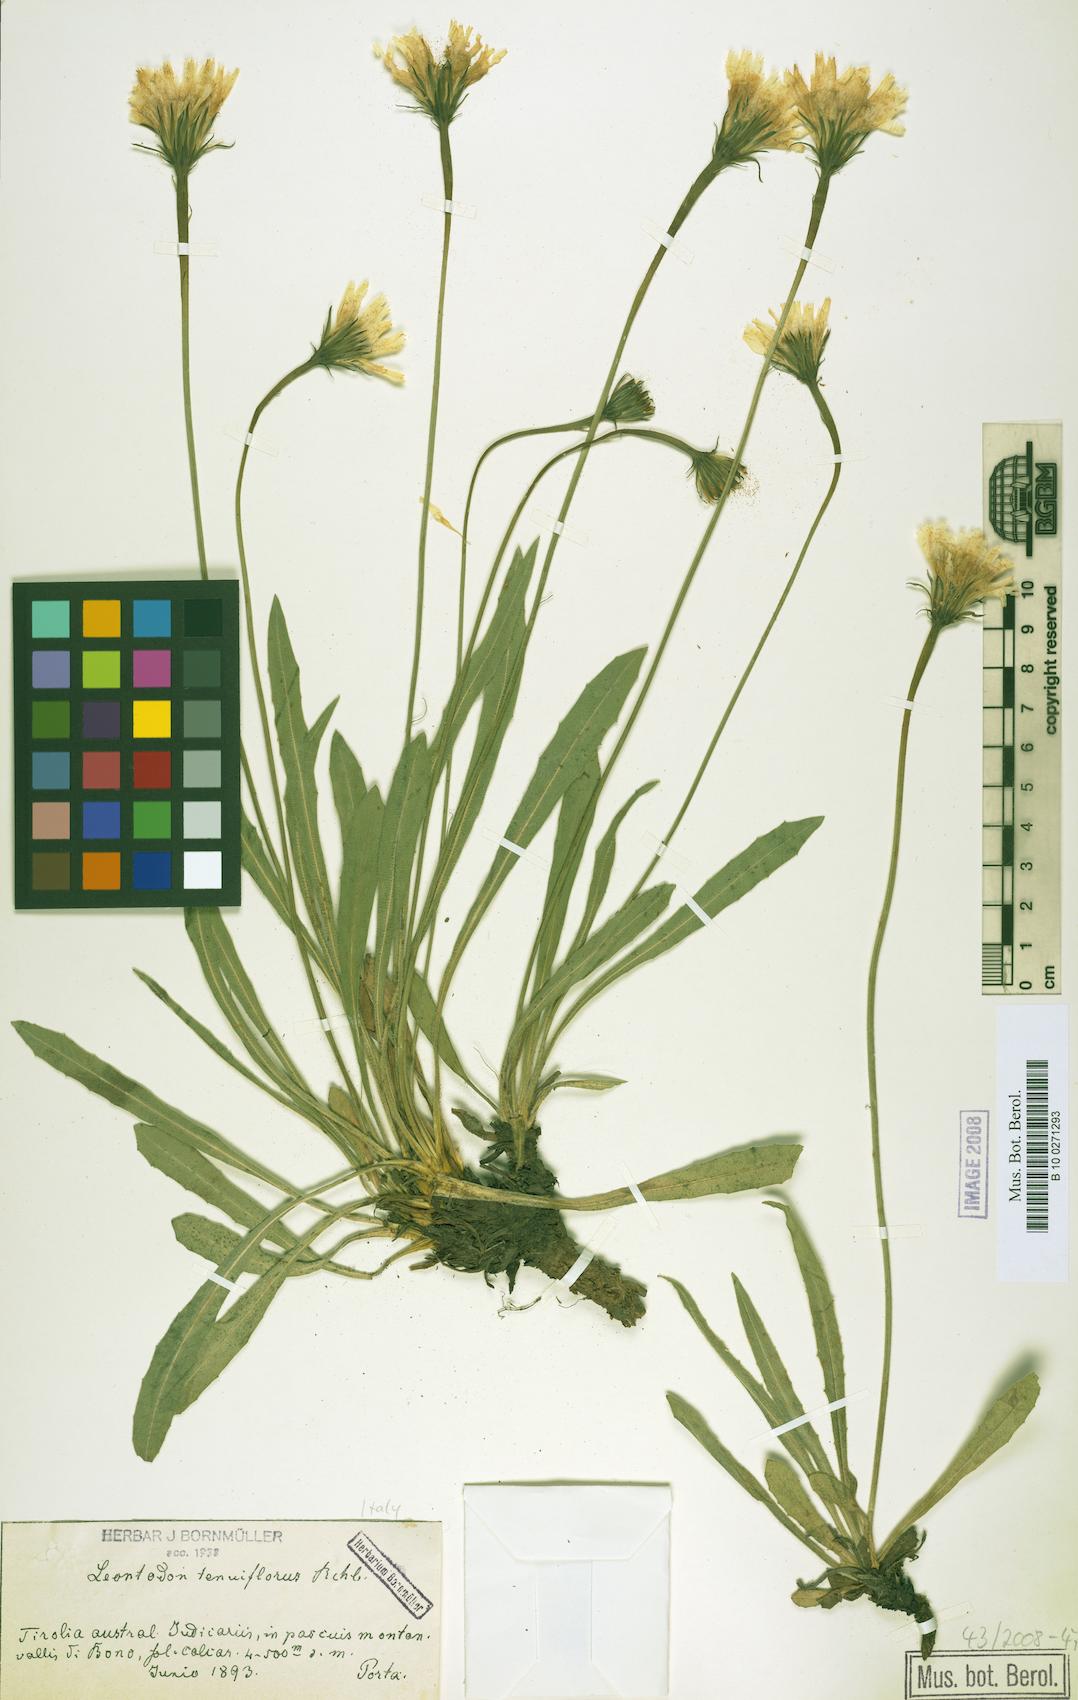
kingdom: Plantae
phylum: Tracheophyta
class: Magnoliopsida
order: Asterales
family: Asteraceae
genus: Leontodon
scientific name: Leontodon tenuiflorus
